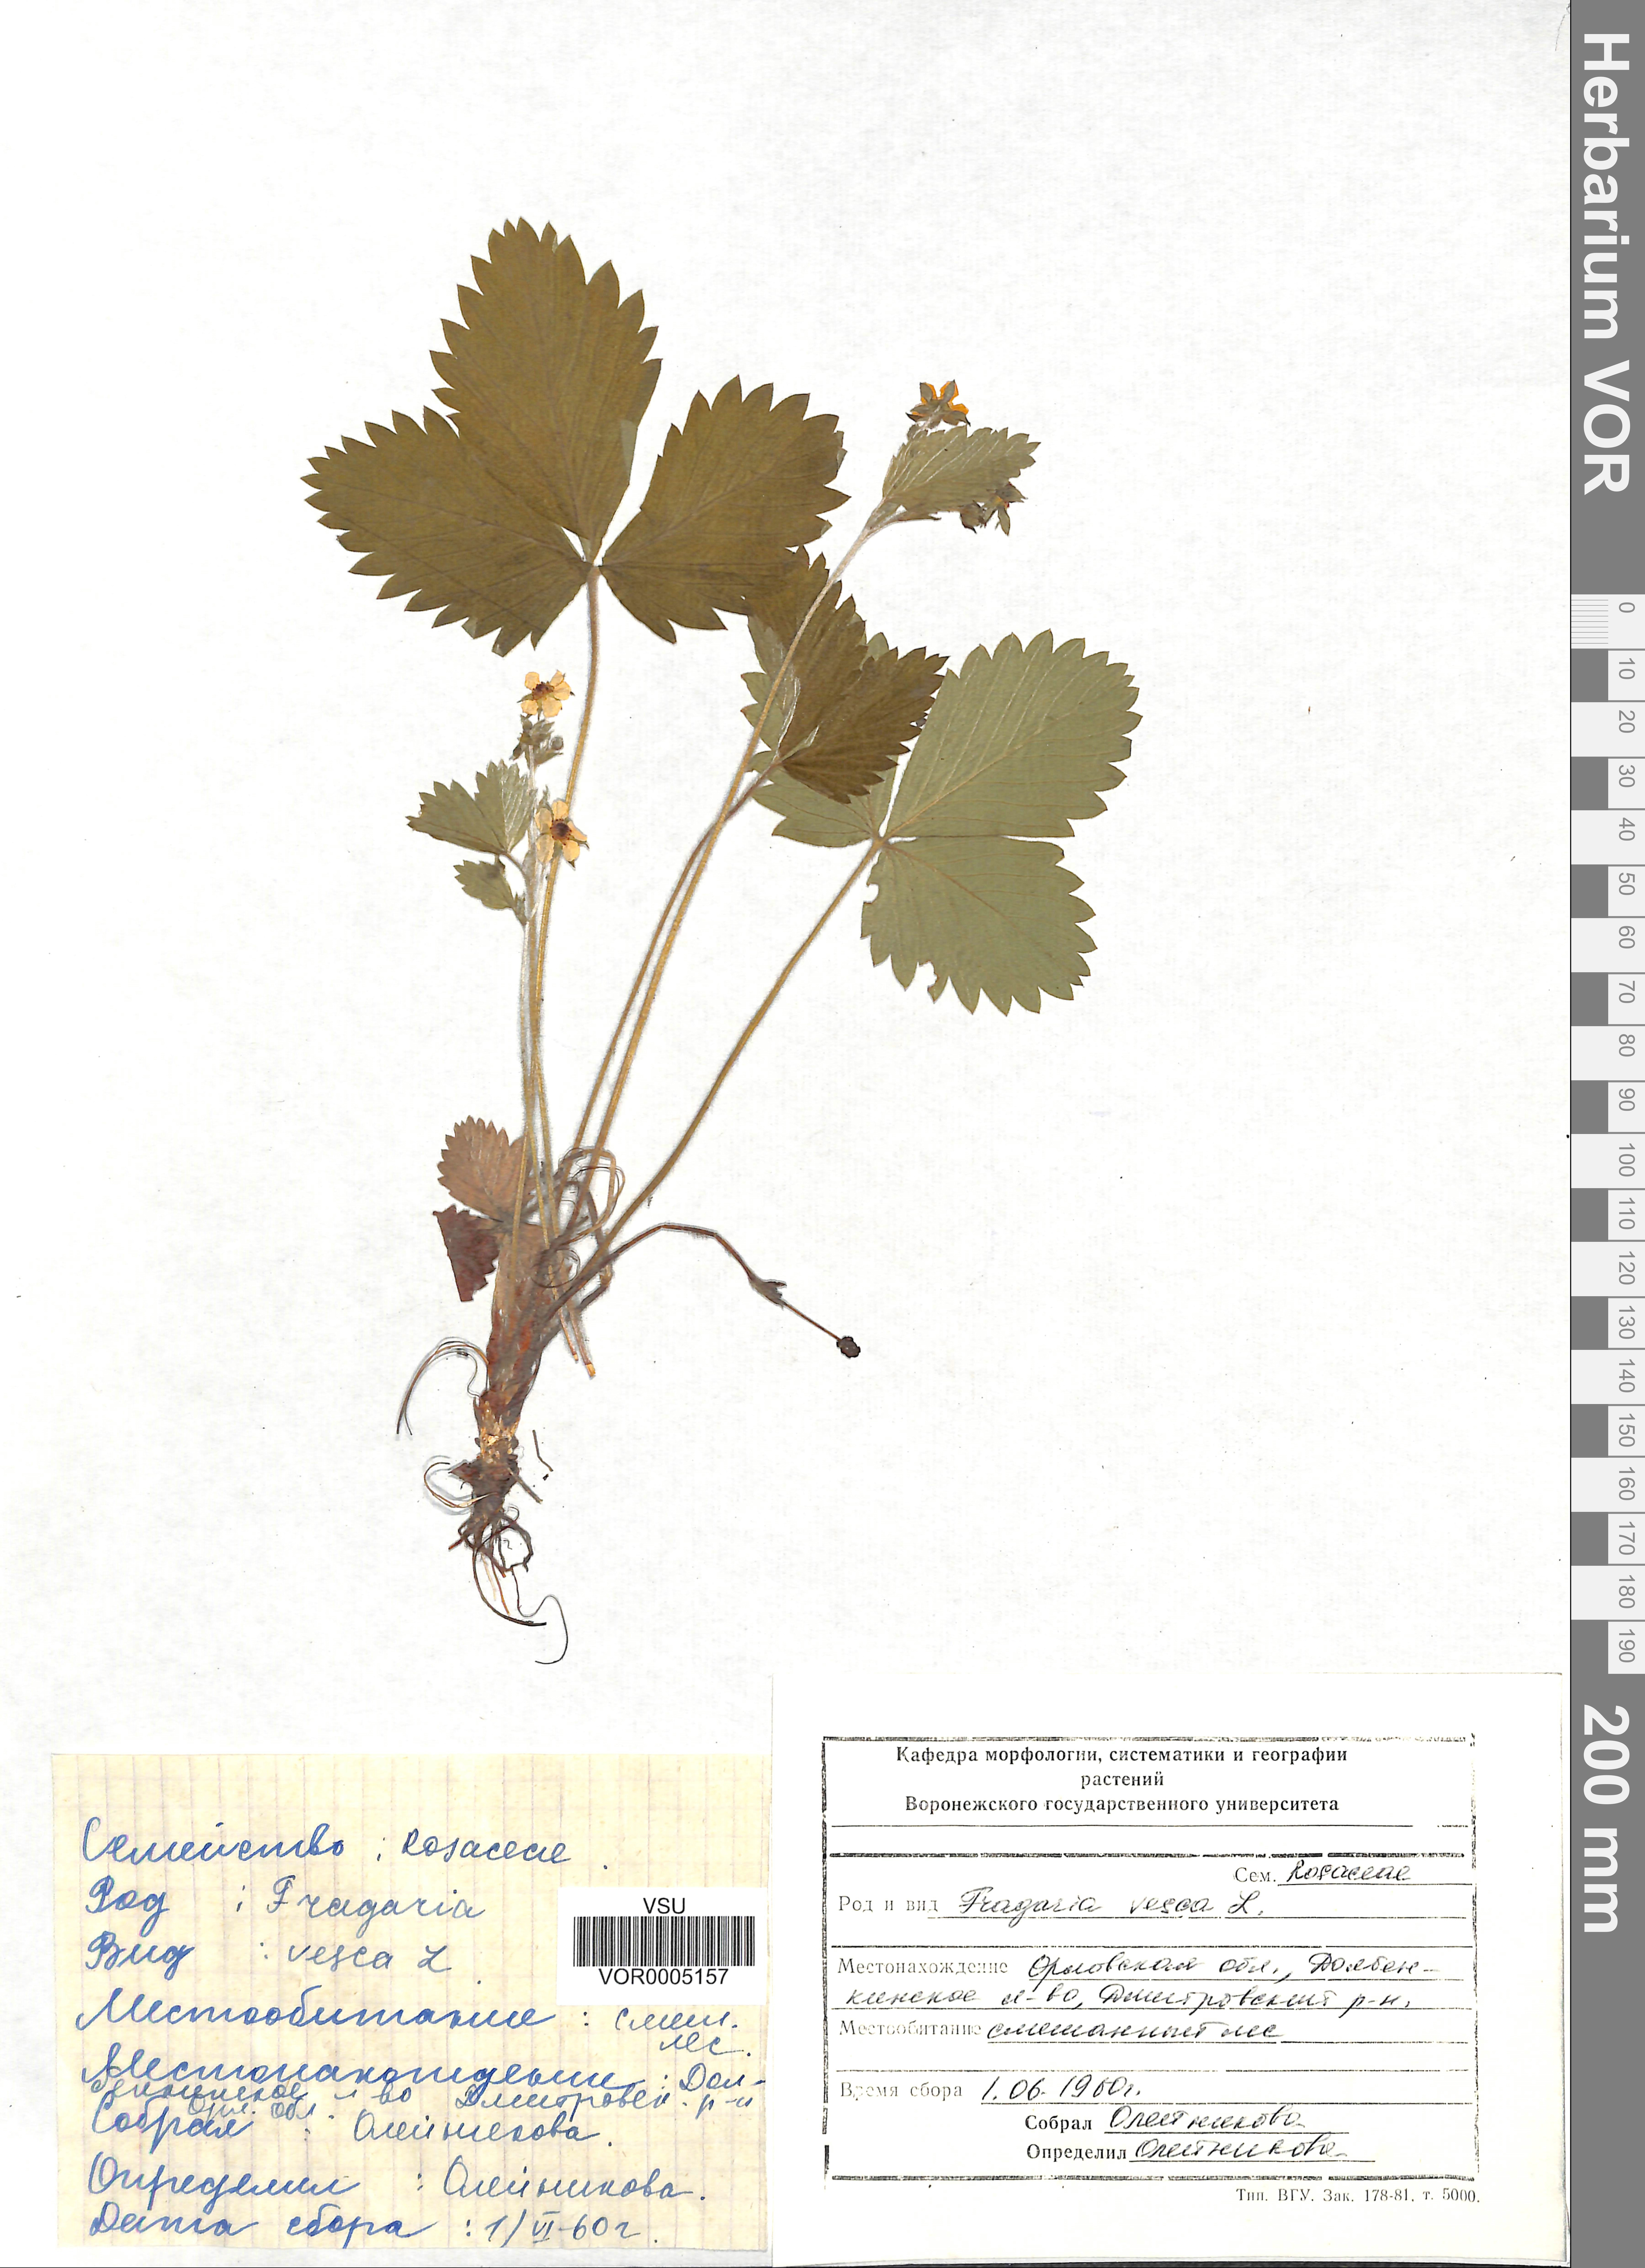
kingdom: Plantae
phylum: Tracheophyta
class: Magnoliopsida
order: Rosales
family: Rosaceae
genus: Fragaria
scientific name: Fragaria vesca
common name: Wild strawberry
